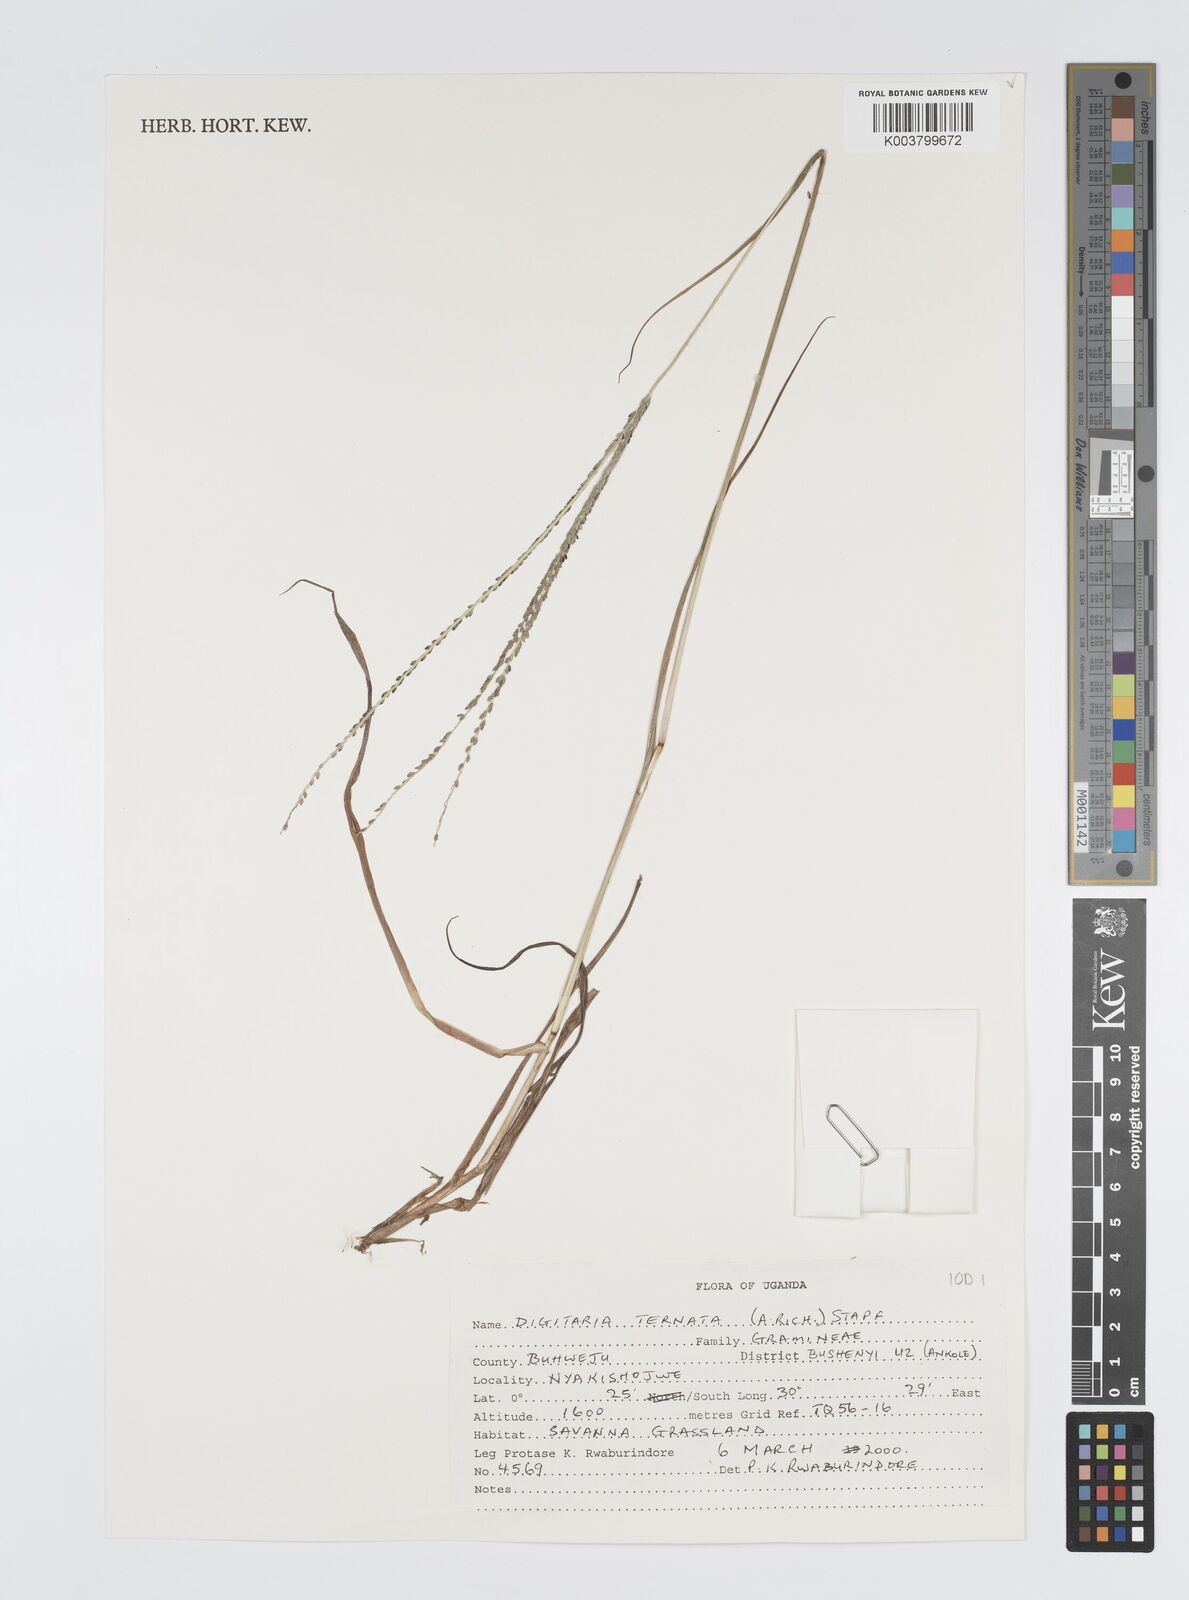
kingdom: Plantae
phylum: Tracheophyta
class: Liliopsida
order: Poales
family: Poaceae
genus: Digitaria
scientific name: Digitaria ternata
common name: Blackseed crabgrass
